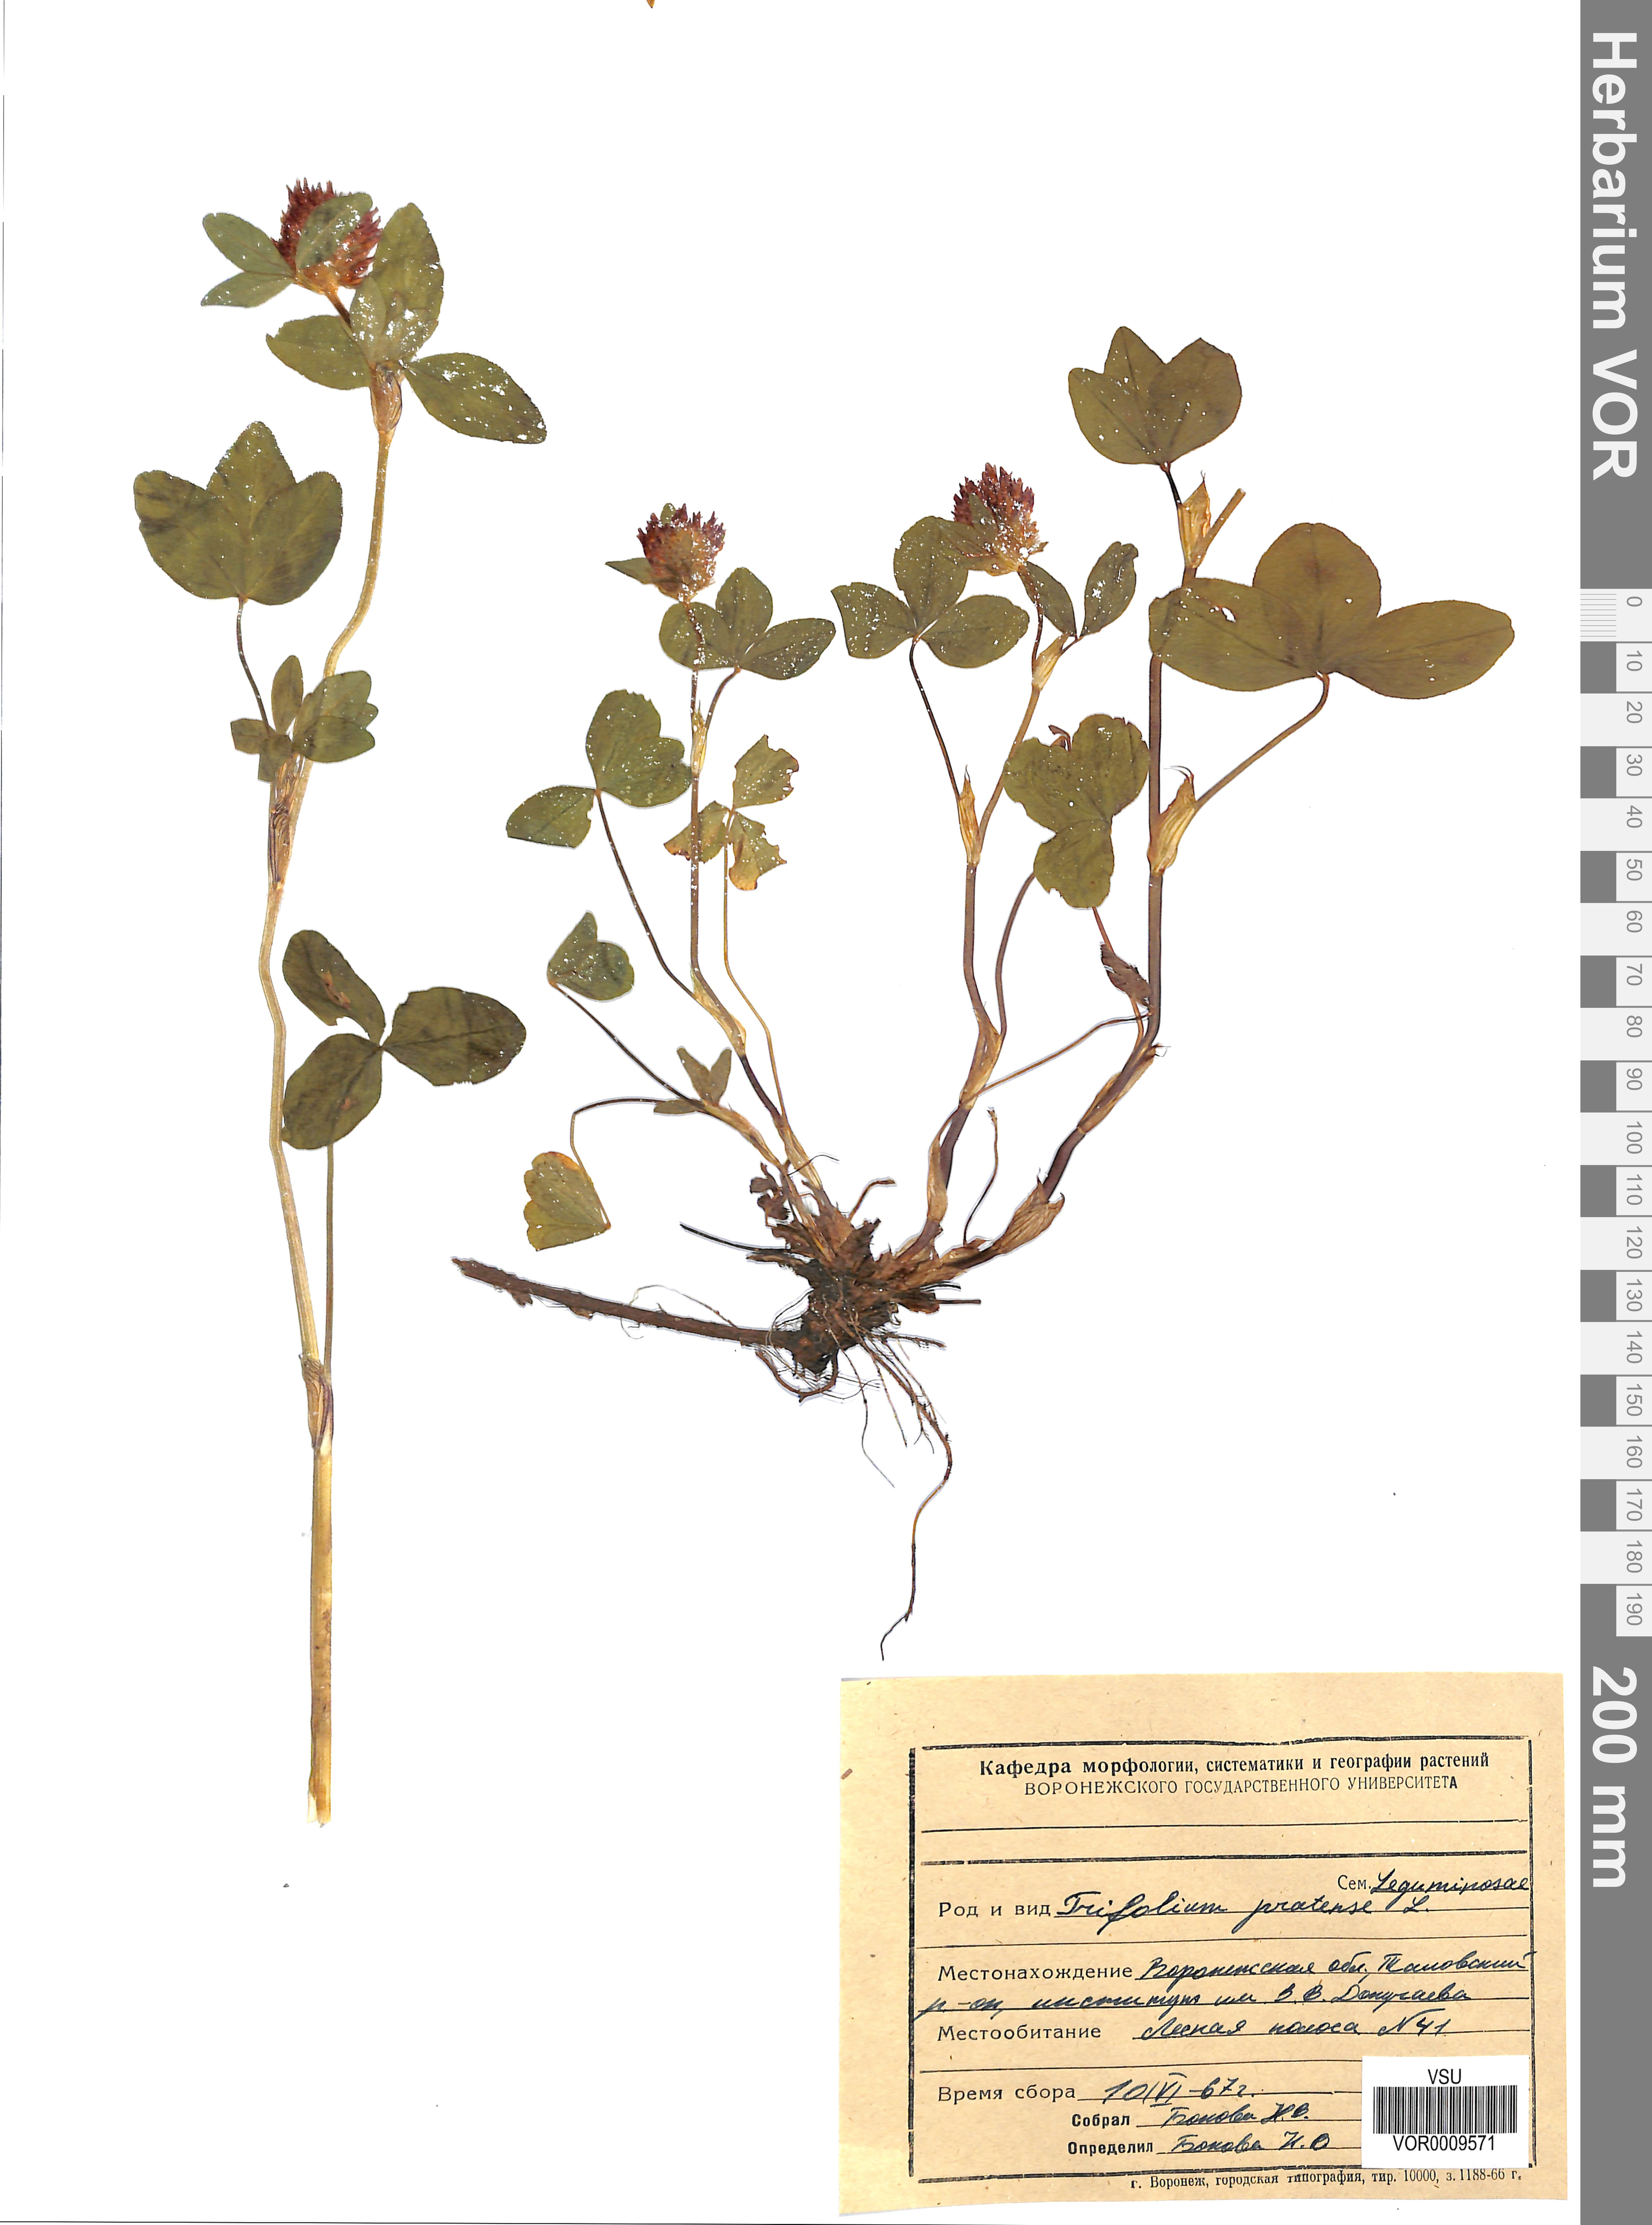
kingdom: Plantae
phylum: Tracheophyta
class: Magnoliopsida
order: Fabales
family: Fabaceae
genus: Trifolium
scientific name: Trifolium pratense
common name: Red clover
